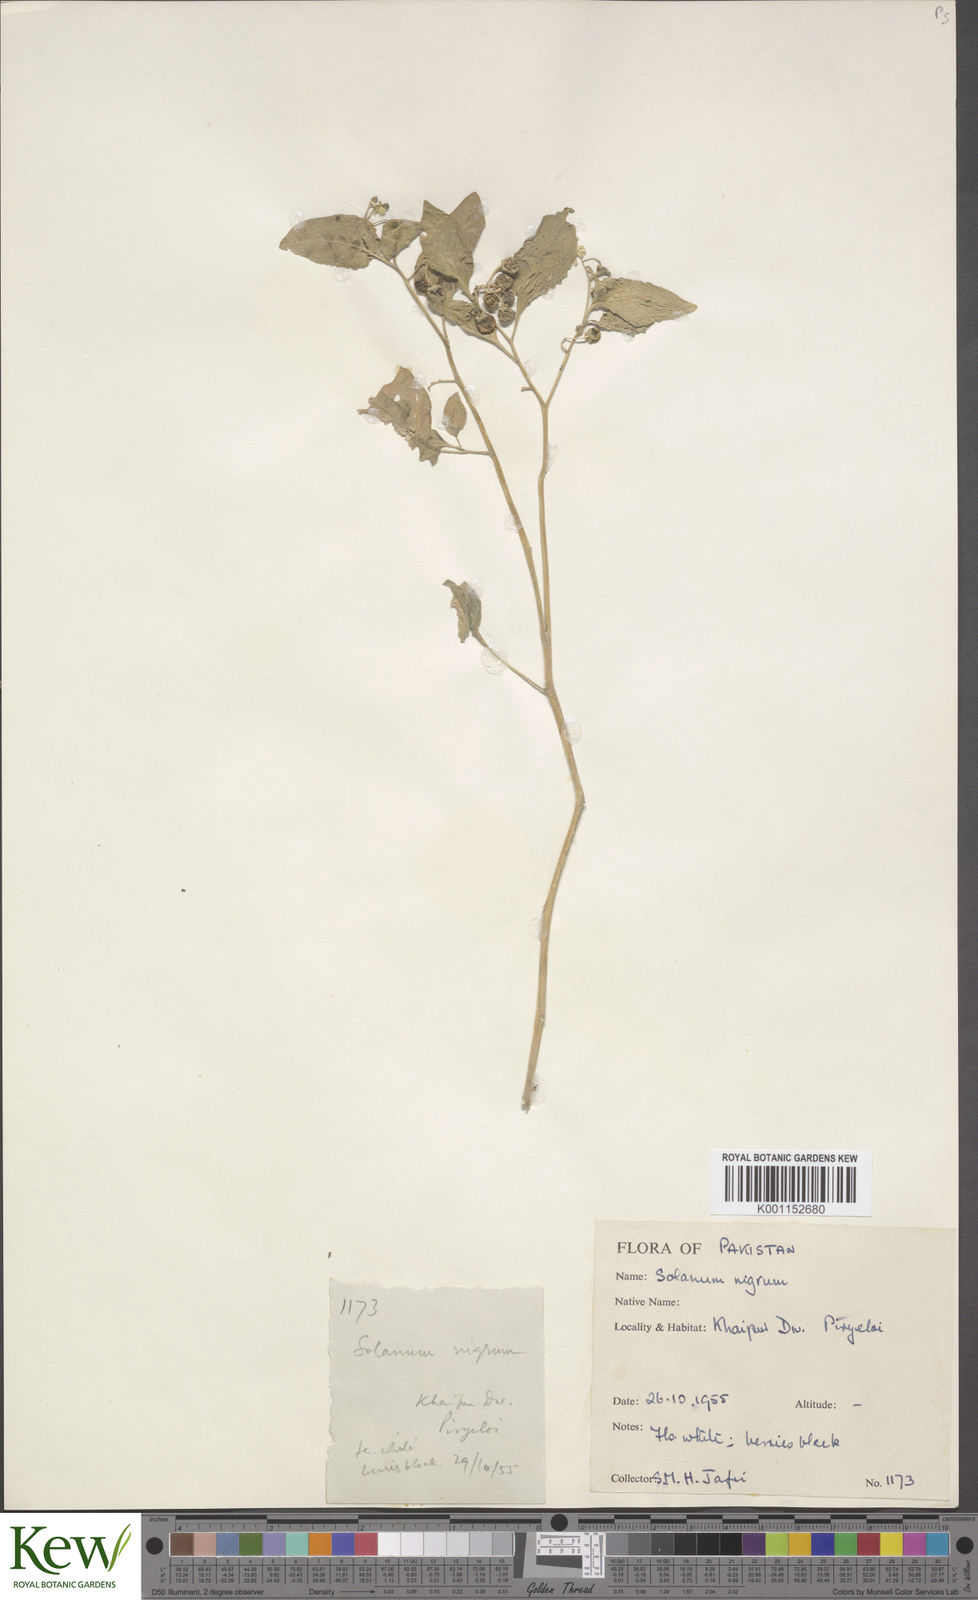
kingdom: Plantae
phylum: Tracheophyta
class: Magnoliopsida
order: Solanales
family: Solanaceae
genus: Solanum
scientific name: Solanum nigrum
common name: Black nightshade
